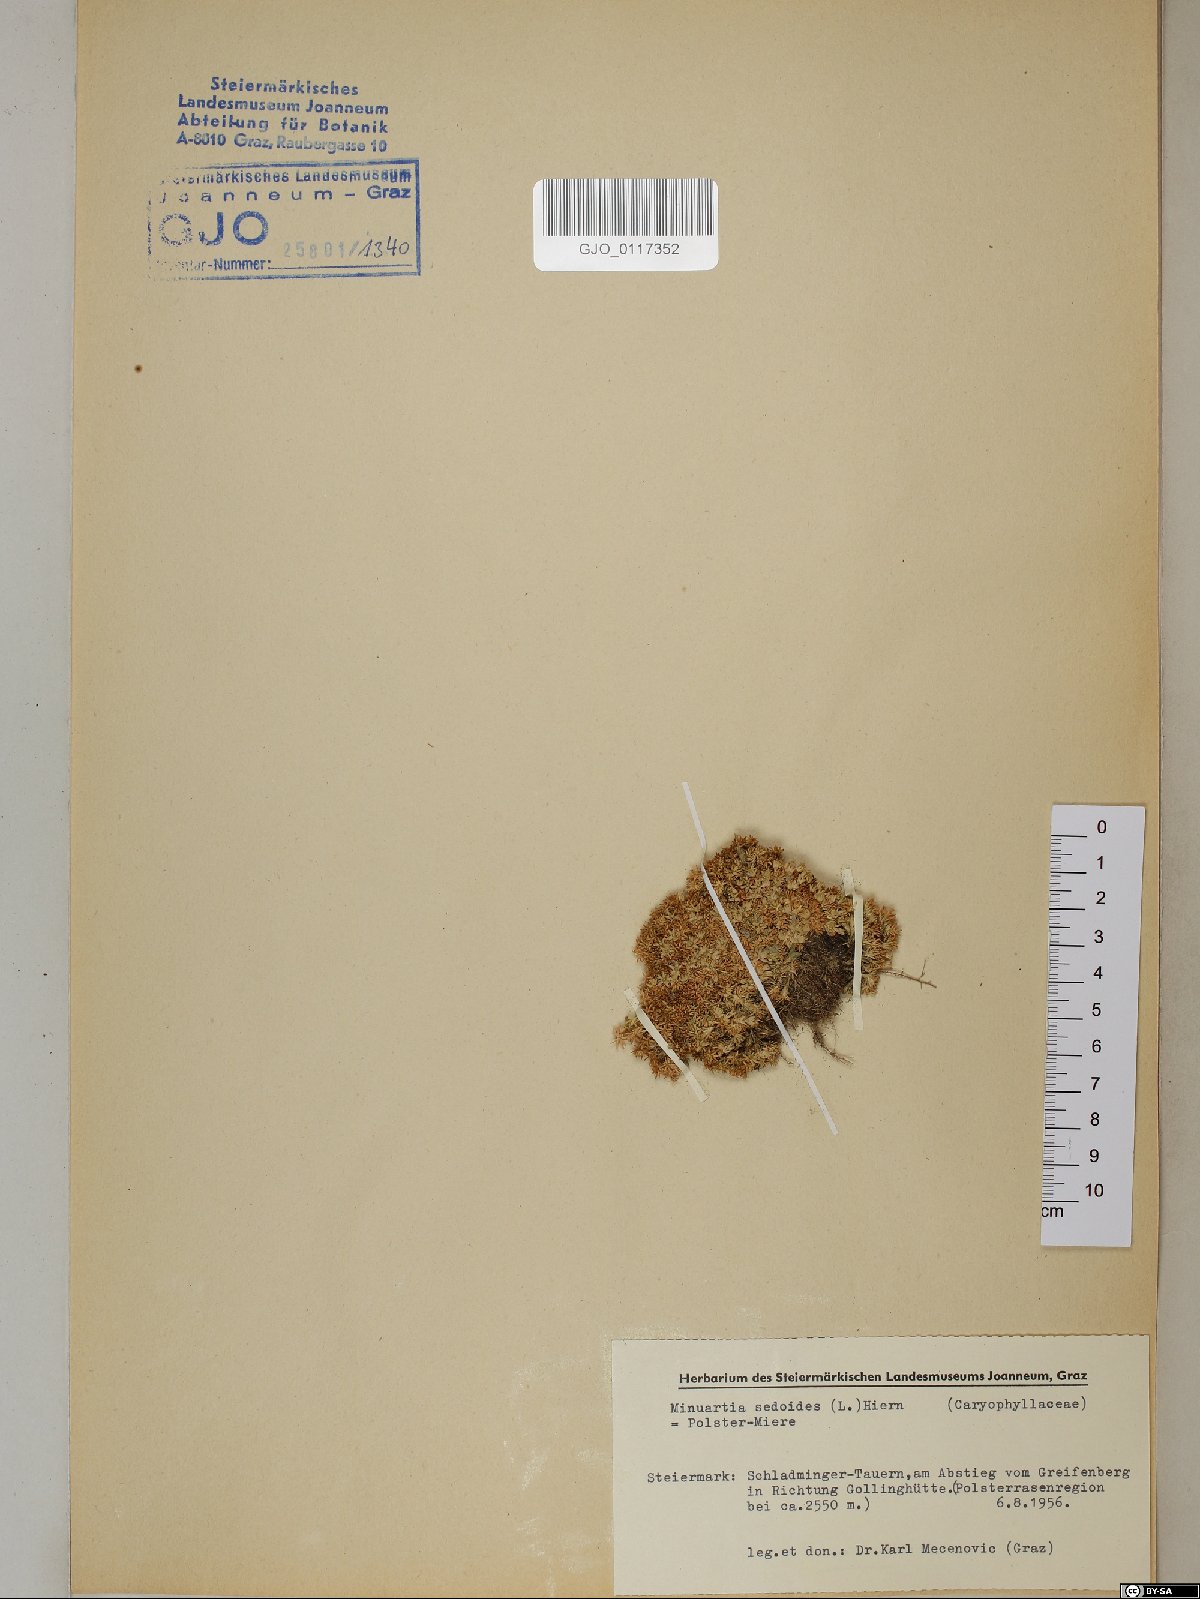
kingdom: Plantae
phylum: Tracheophyta
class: Magnoliopsida
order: Caryophyllales
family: Caryophyllaceae
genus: Cherleria
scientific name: Cherleria sedoides
